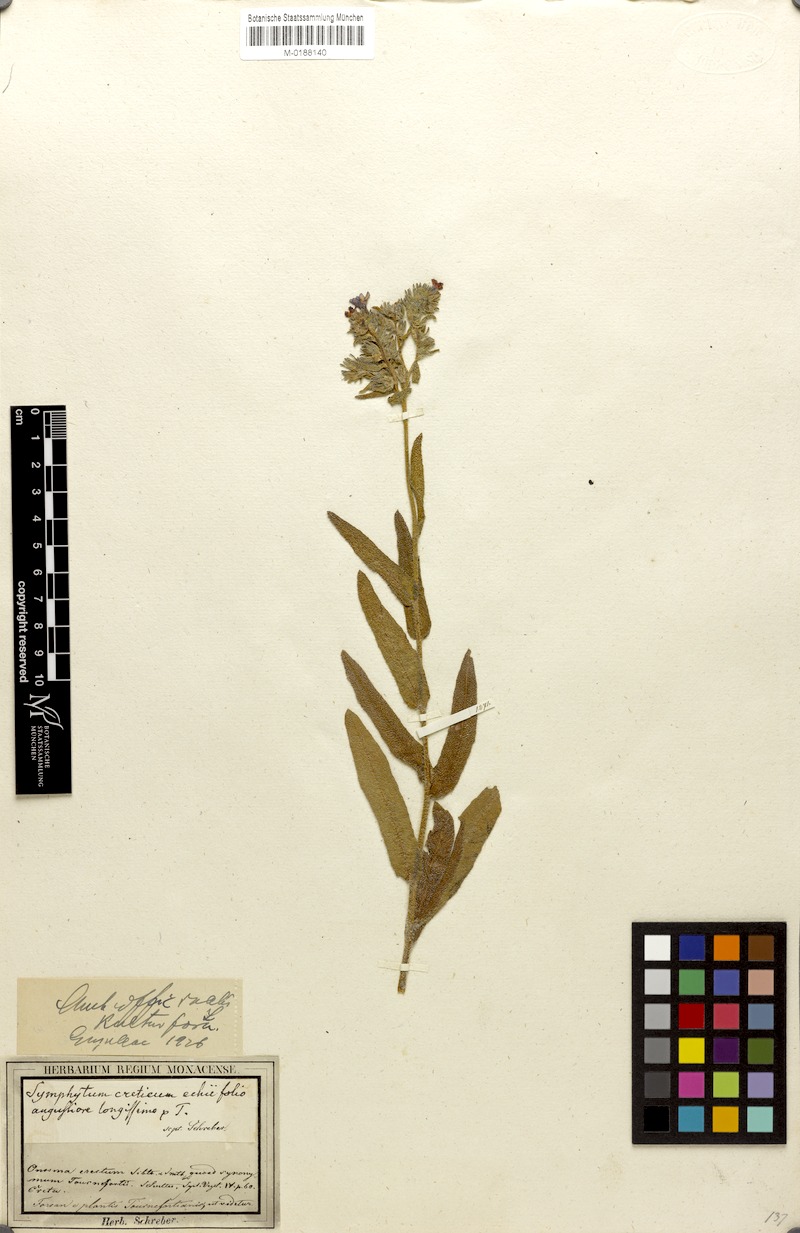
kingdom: Plantae
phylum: Tracheophyta
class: Magnoliopsida
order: Boraginales
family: Boraginaceae
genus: Anchusa
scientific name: Anchusa officinalis
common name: Alkanet
